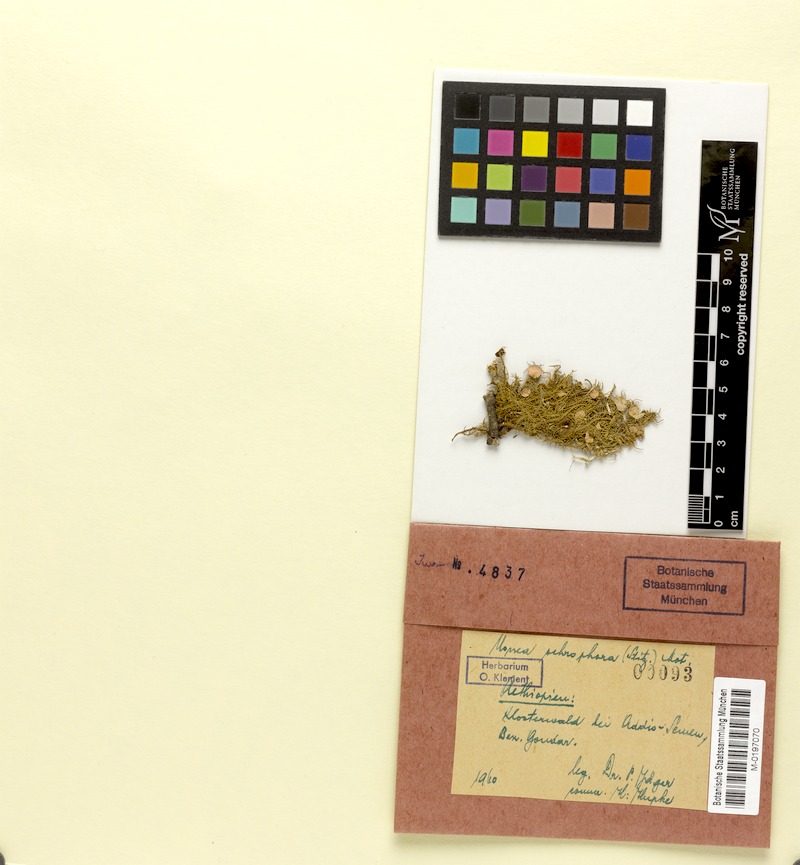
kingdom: Fungi
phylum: Ascomycota
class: Lecanoromycetes
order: Lecanorales
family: Parmeliaceae
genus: Usnea
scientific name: Usnea
